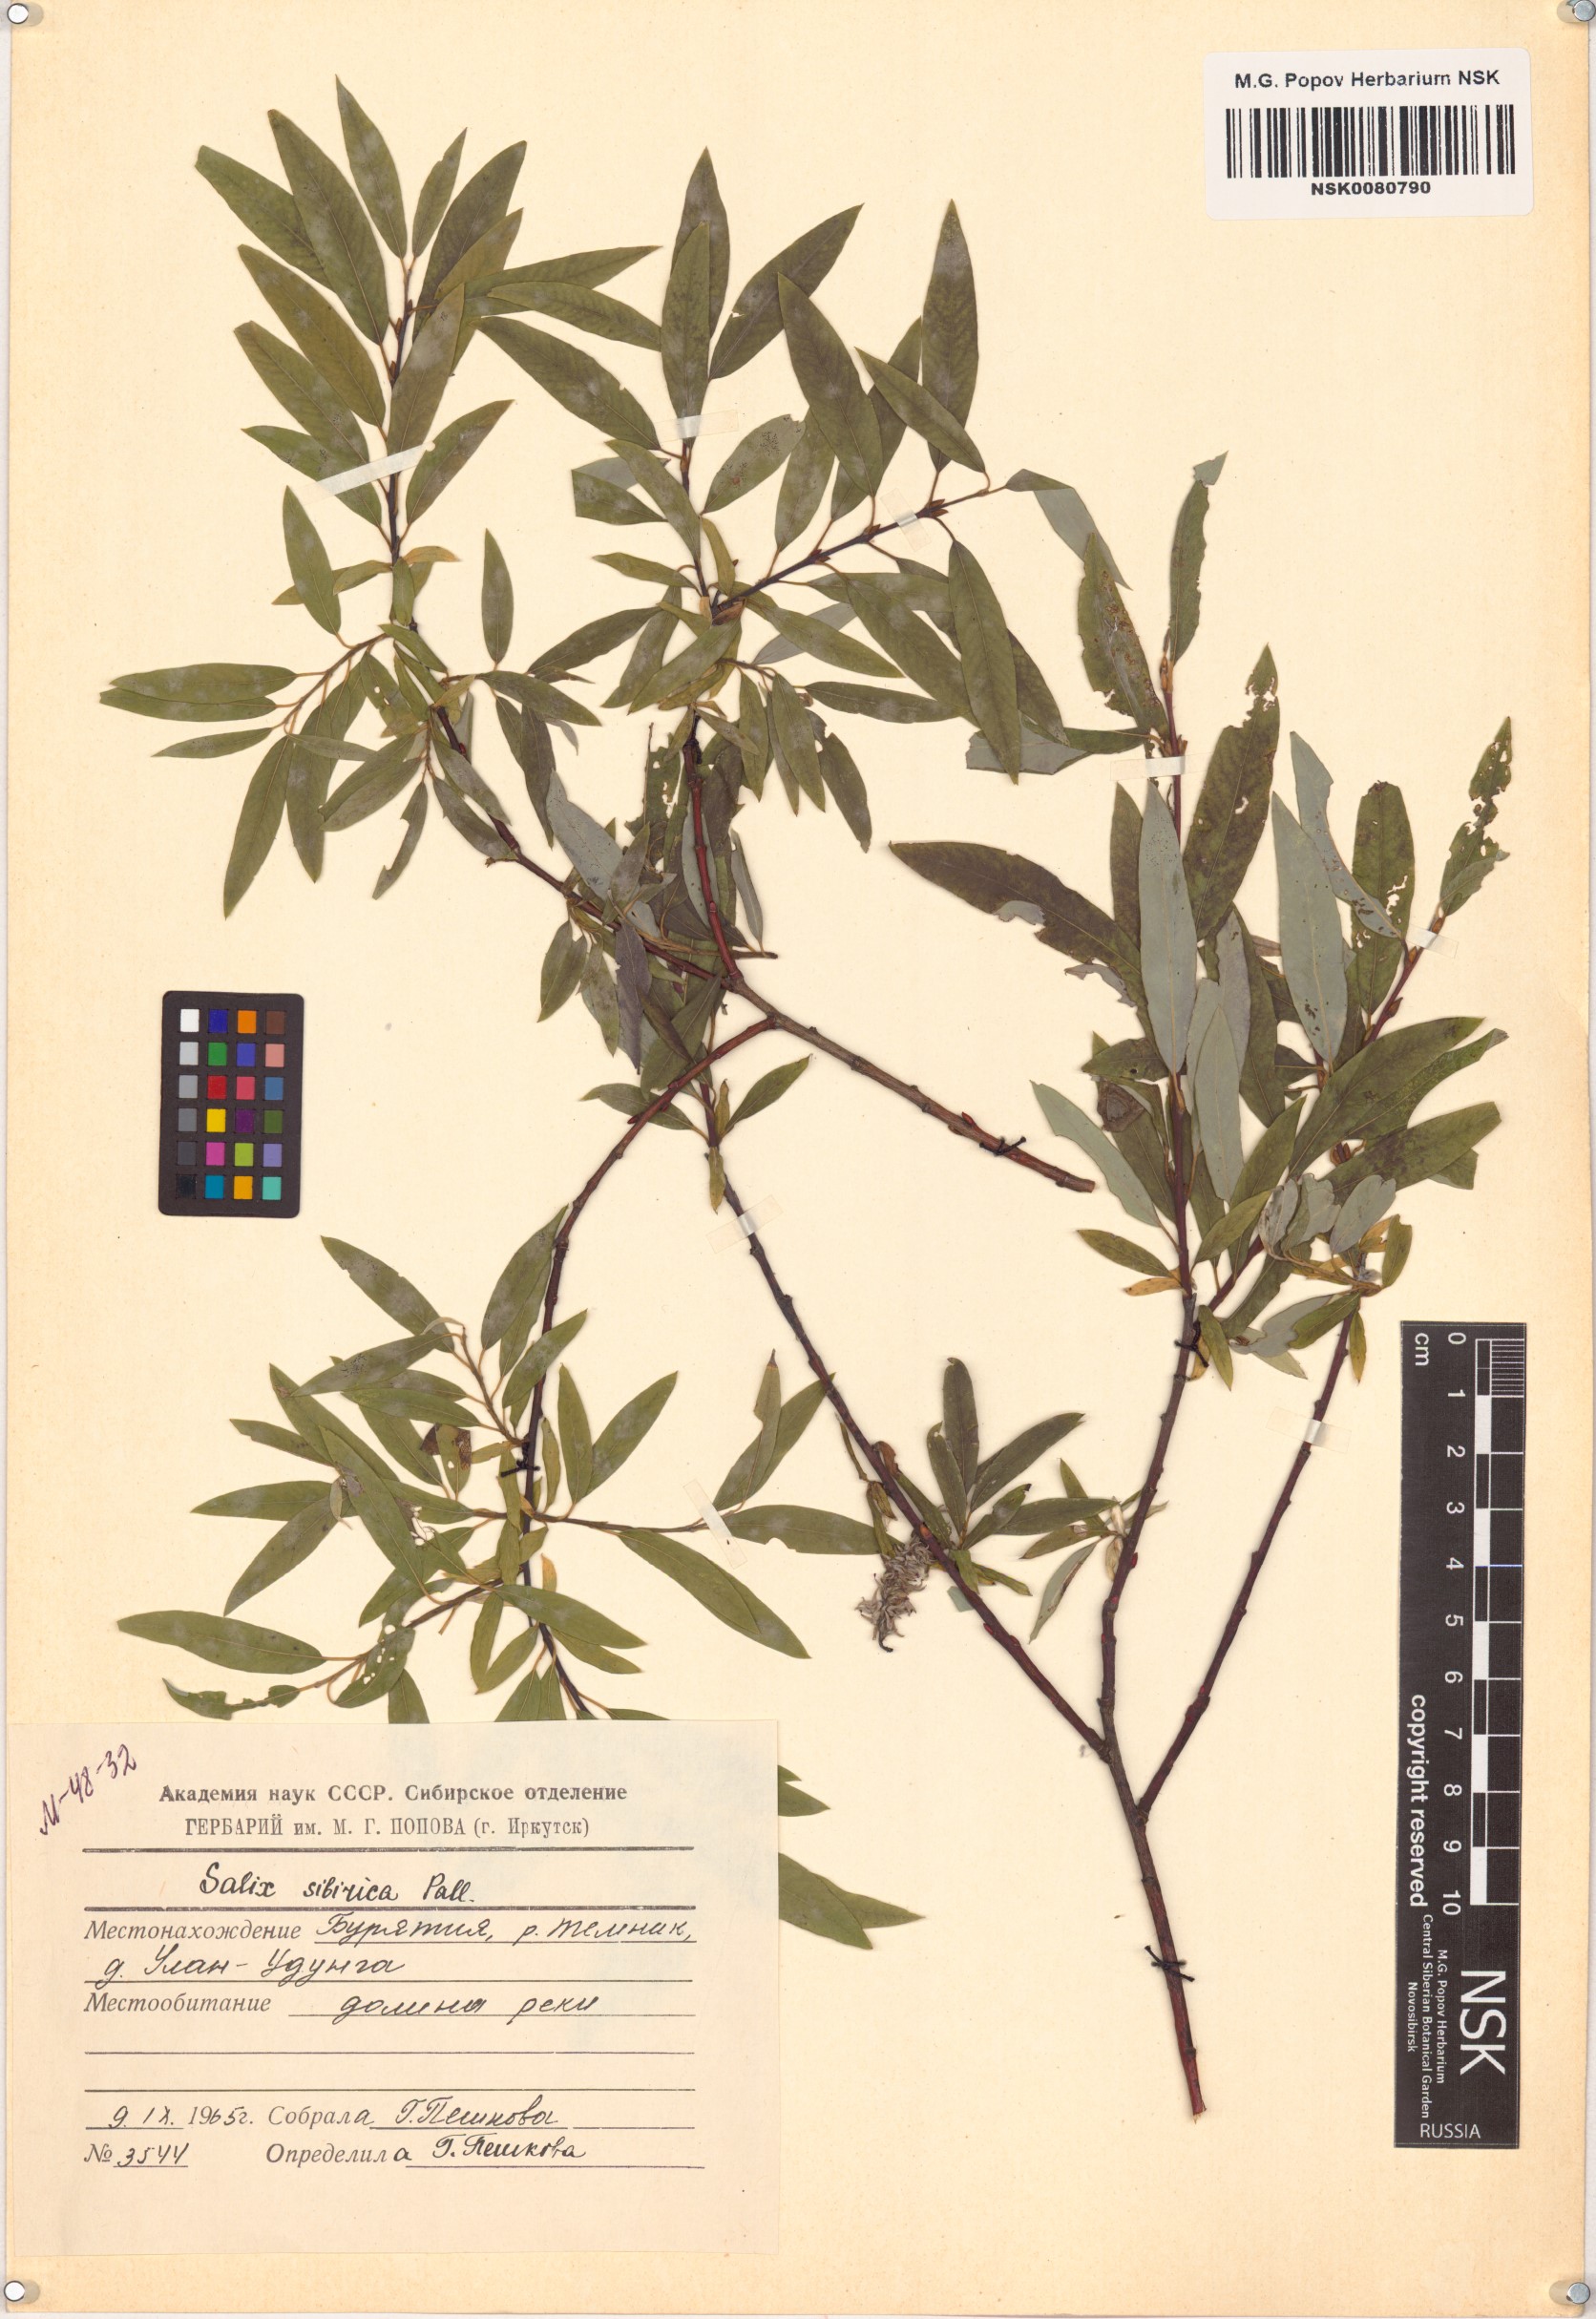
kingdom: Plantae
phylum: Tracheophyta
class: Magnoliopsida
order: Malpighiales
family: Salicaceae
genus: Salix
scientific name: Salix rosmarinifolia
